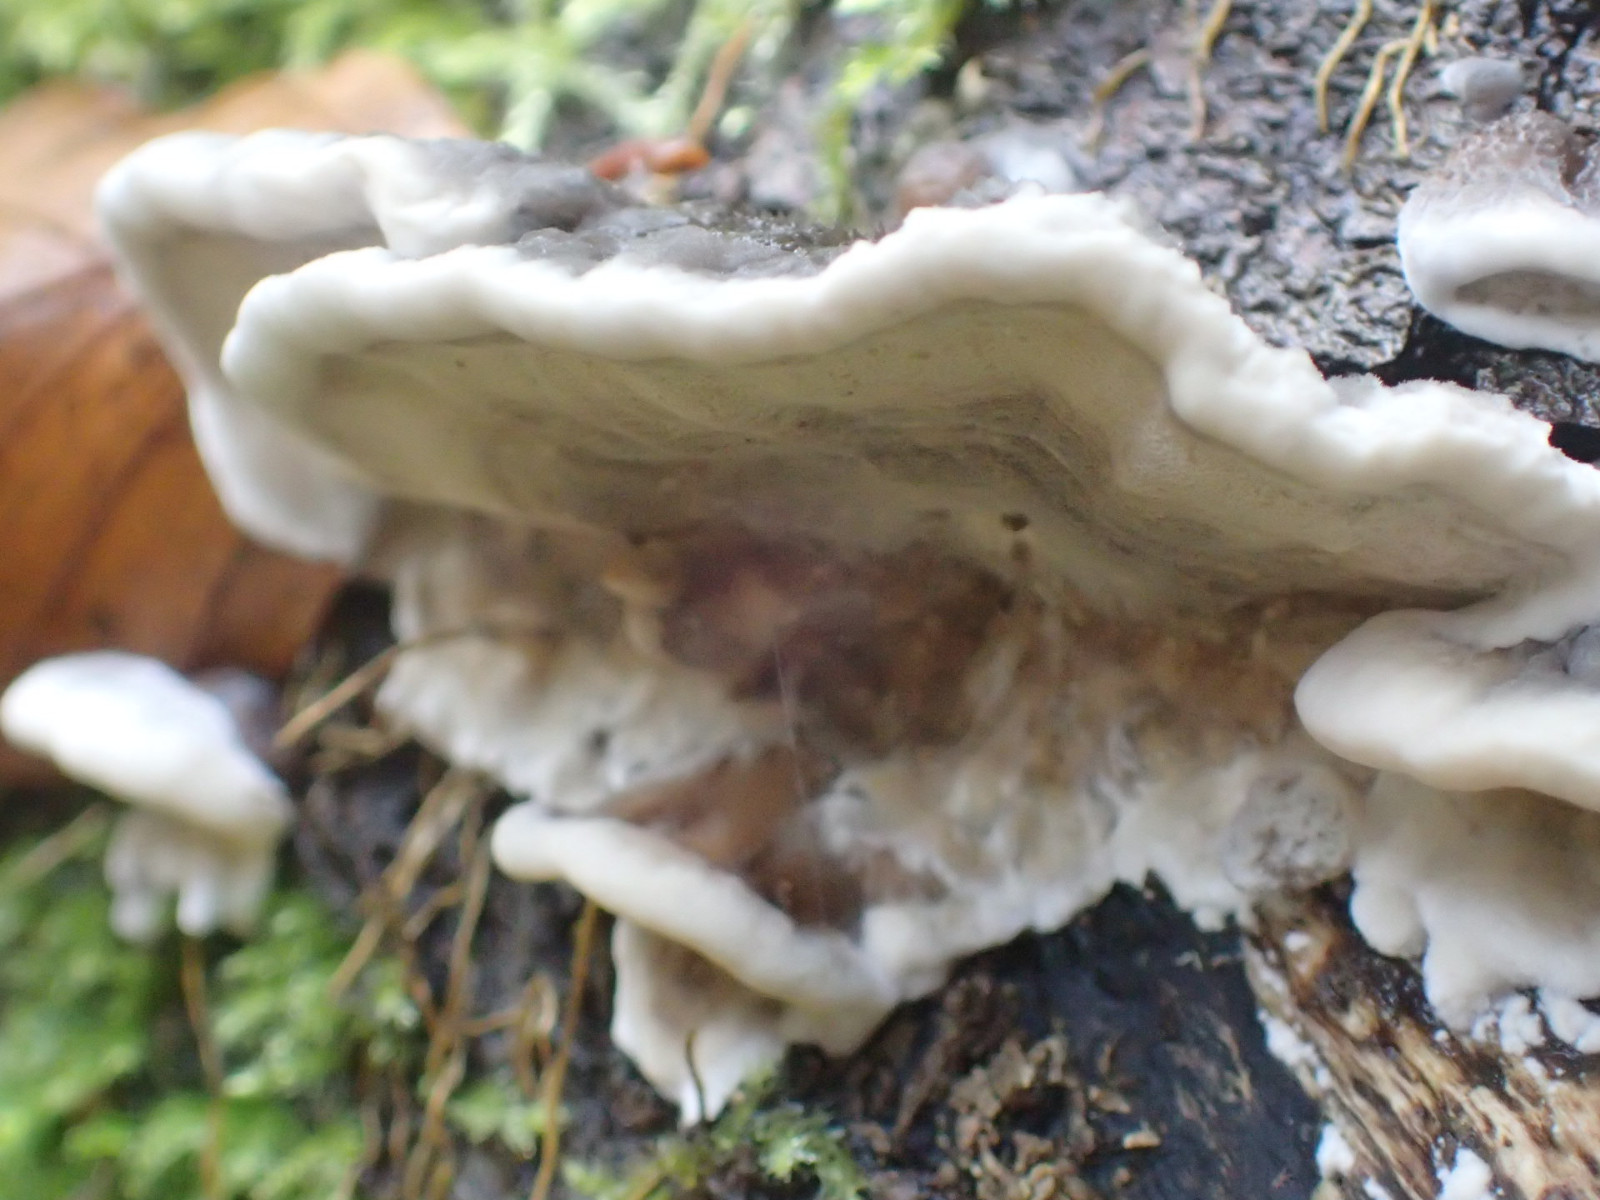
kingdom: Fungi
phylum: Basidiomycota
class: Agaricomycetes
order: Polyporales
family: Phanerochaetaceae
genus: Bjerkandera
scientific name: Bjerkandera adusta
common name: sveden sodporesvamp
